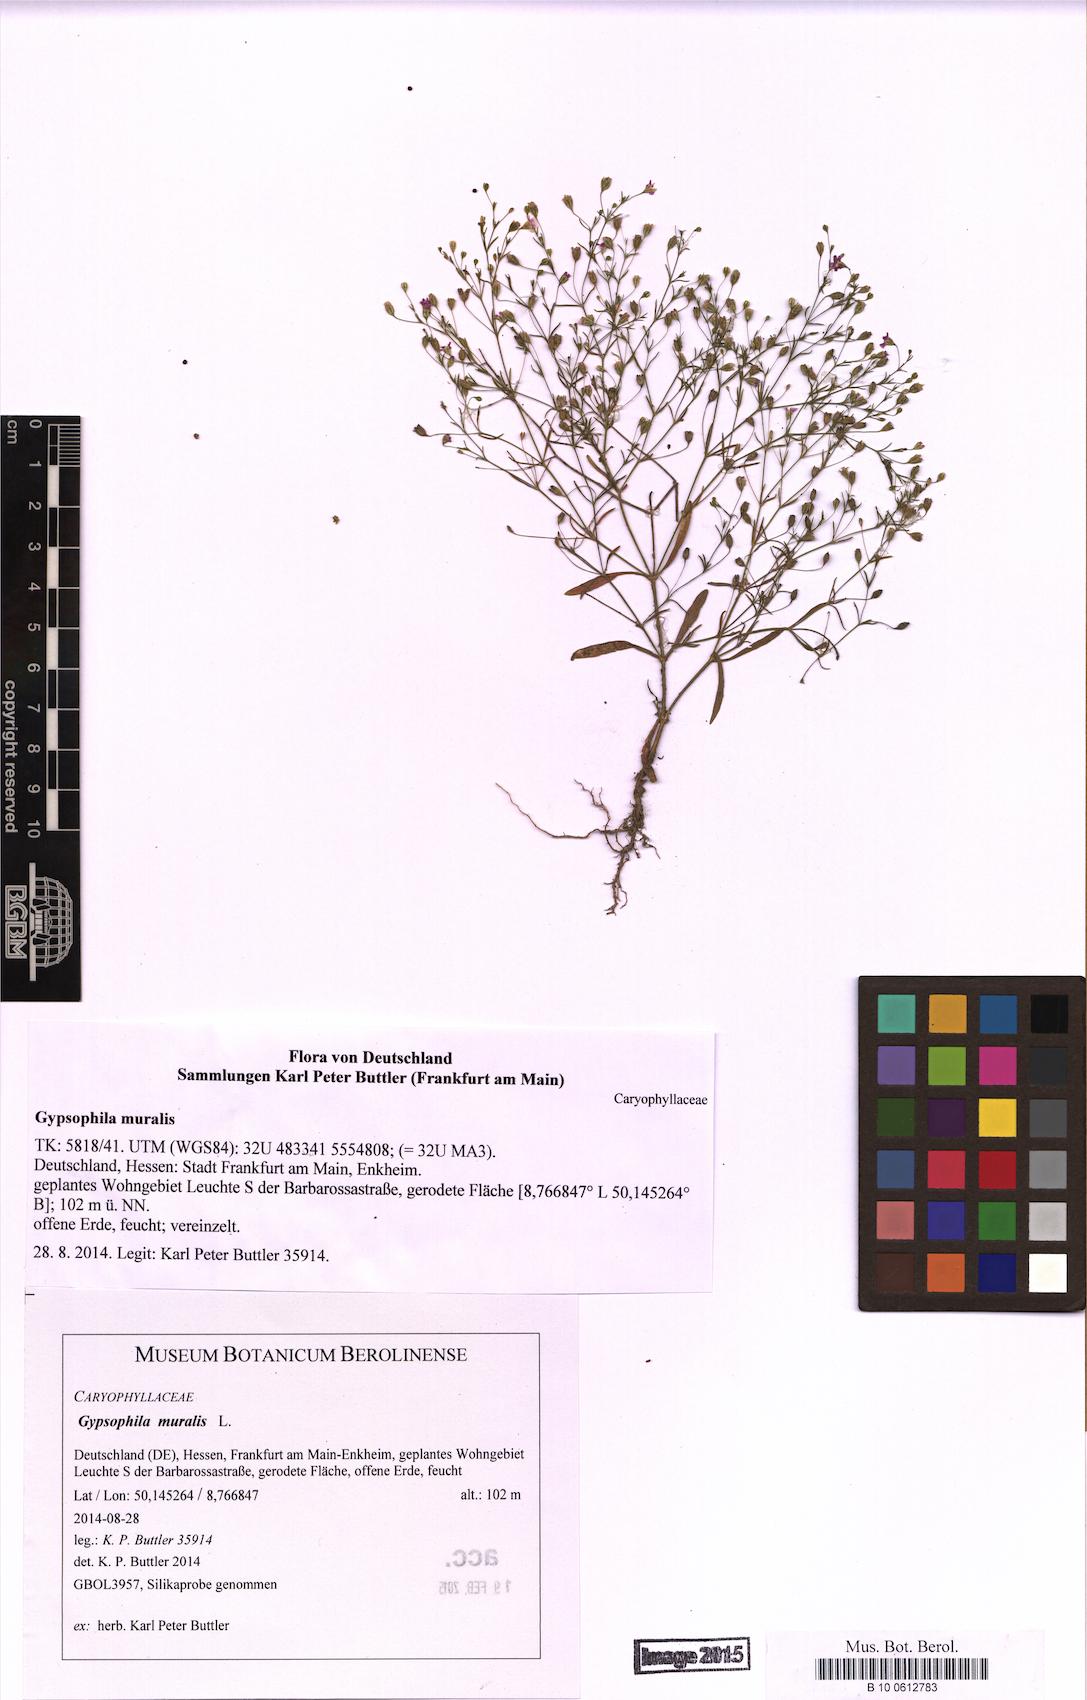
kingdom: Plantae
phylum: Tracheophyta
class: Magnoliopsida
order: Caryophyllales
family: Caryophyllaceae
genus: Psammophiliella
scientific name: Psammophiliella muralis
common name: Cushion baby's-breath
